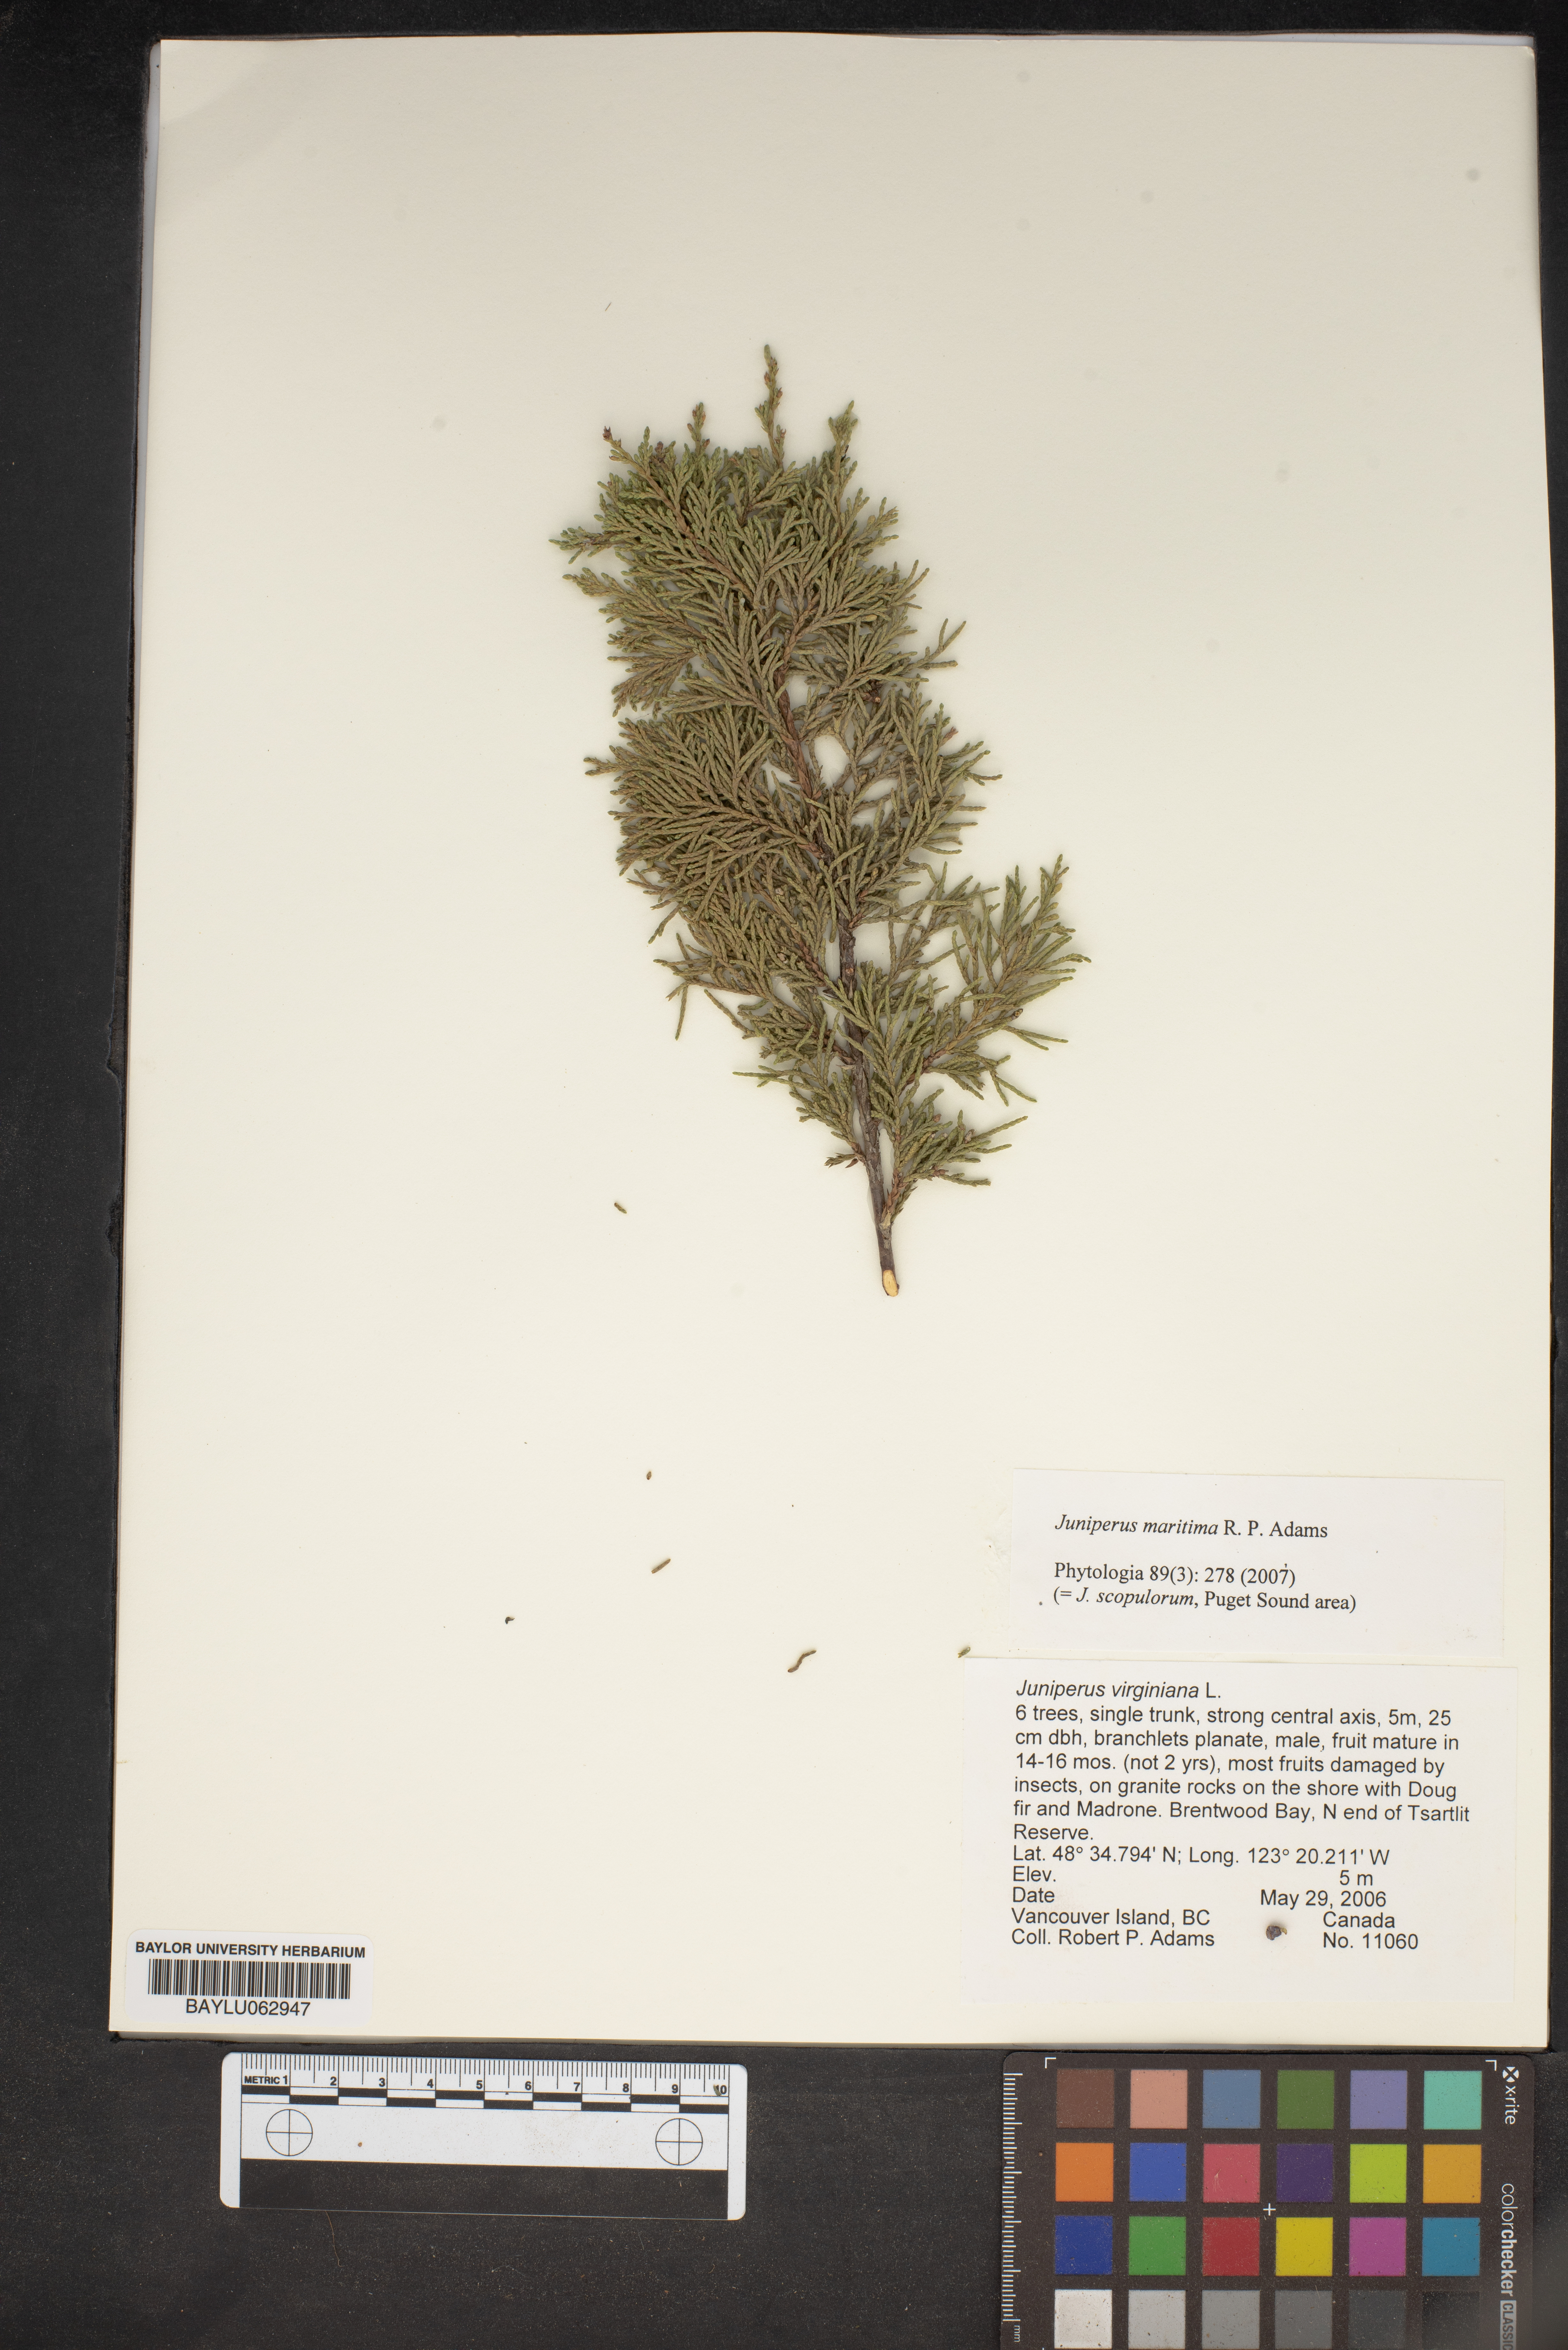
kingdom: Plantae
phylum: Tracheophyta
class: Pinopsida
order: Pinales
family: Cupressaceae
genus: Juniperus
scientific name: Juniperus scopulorum
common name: Rocky mountain juniper
